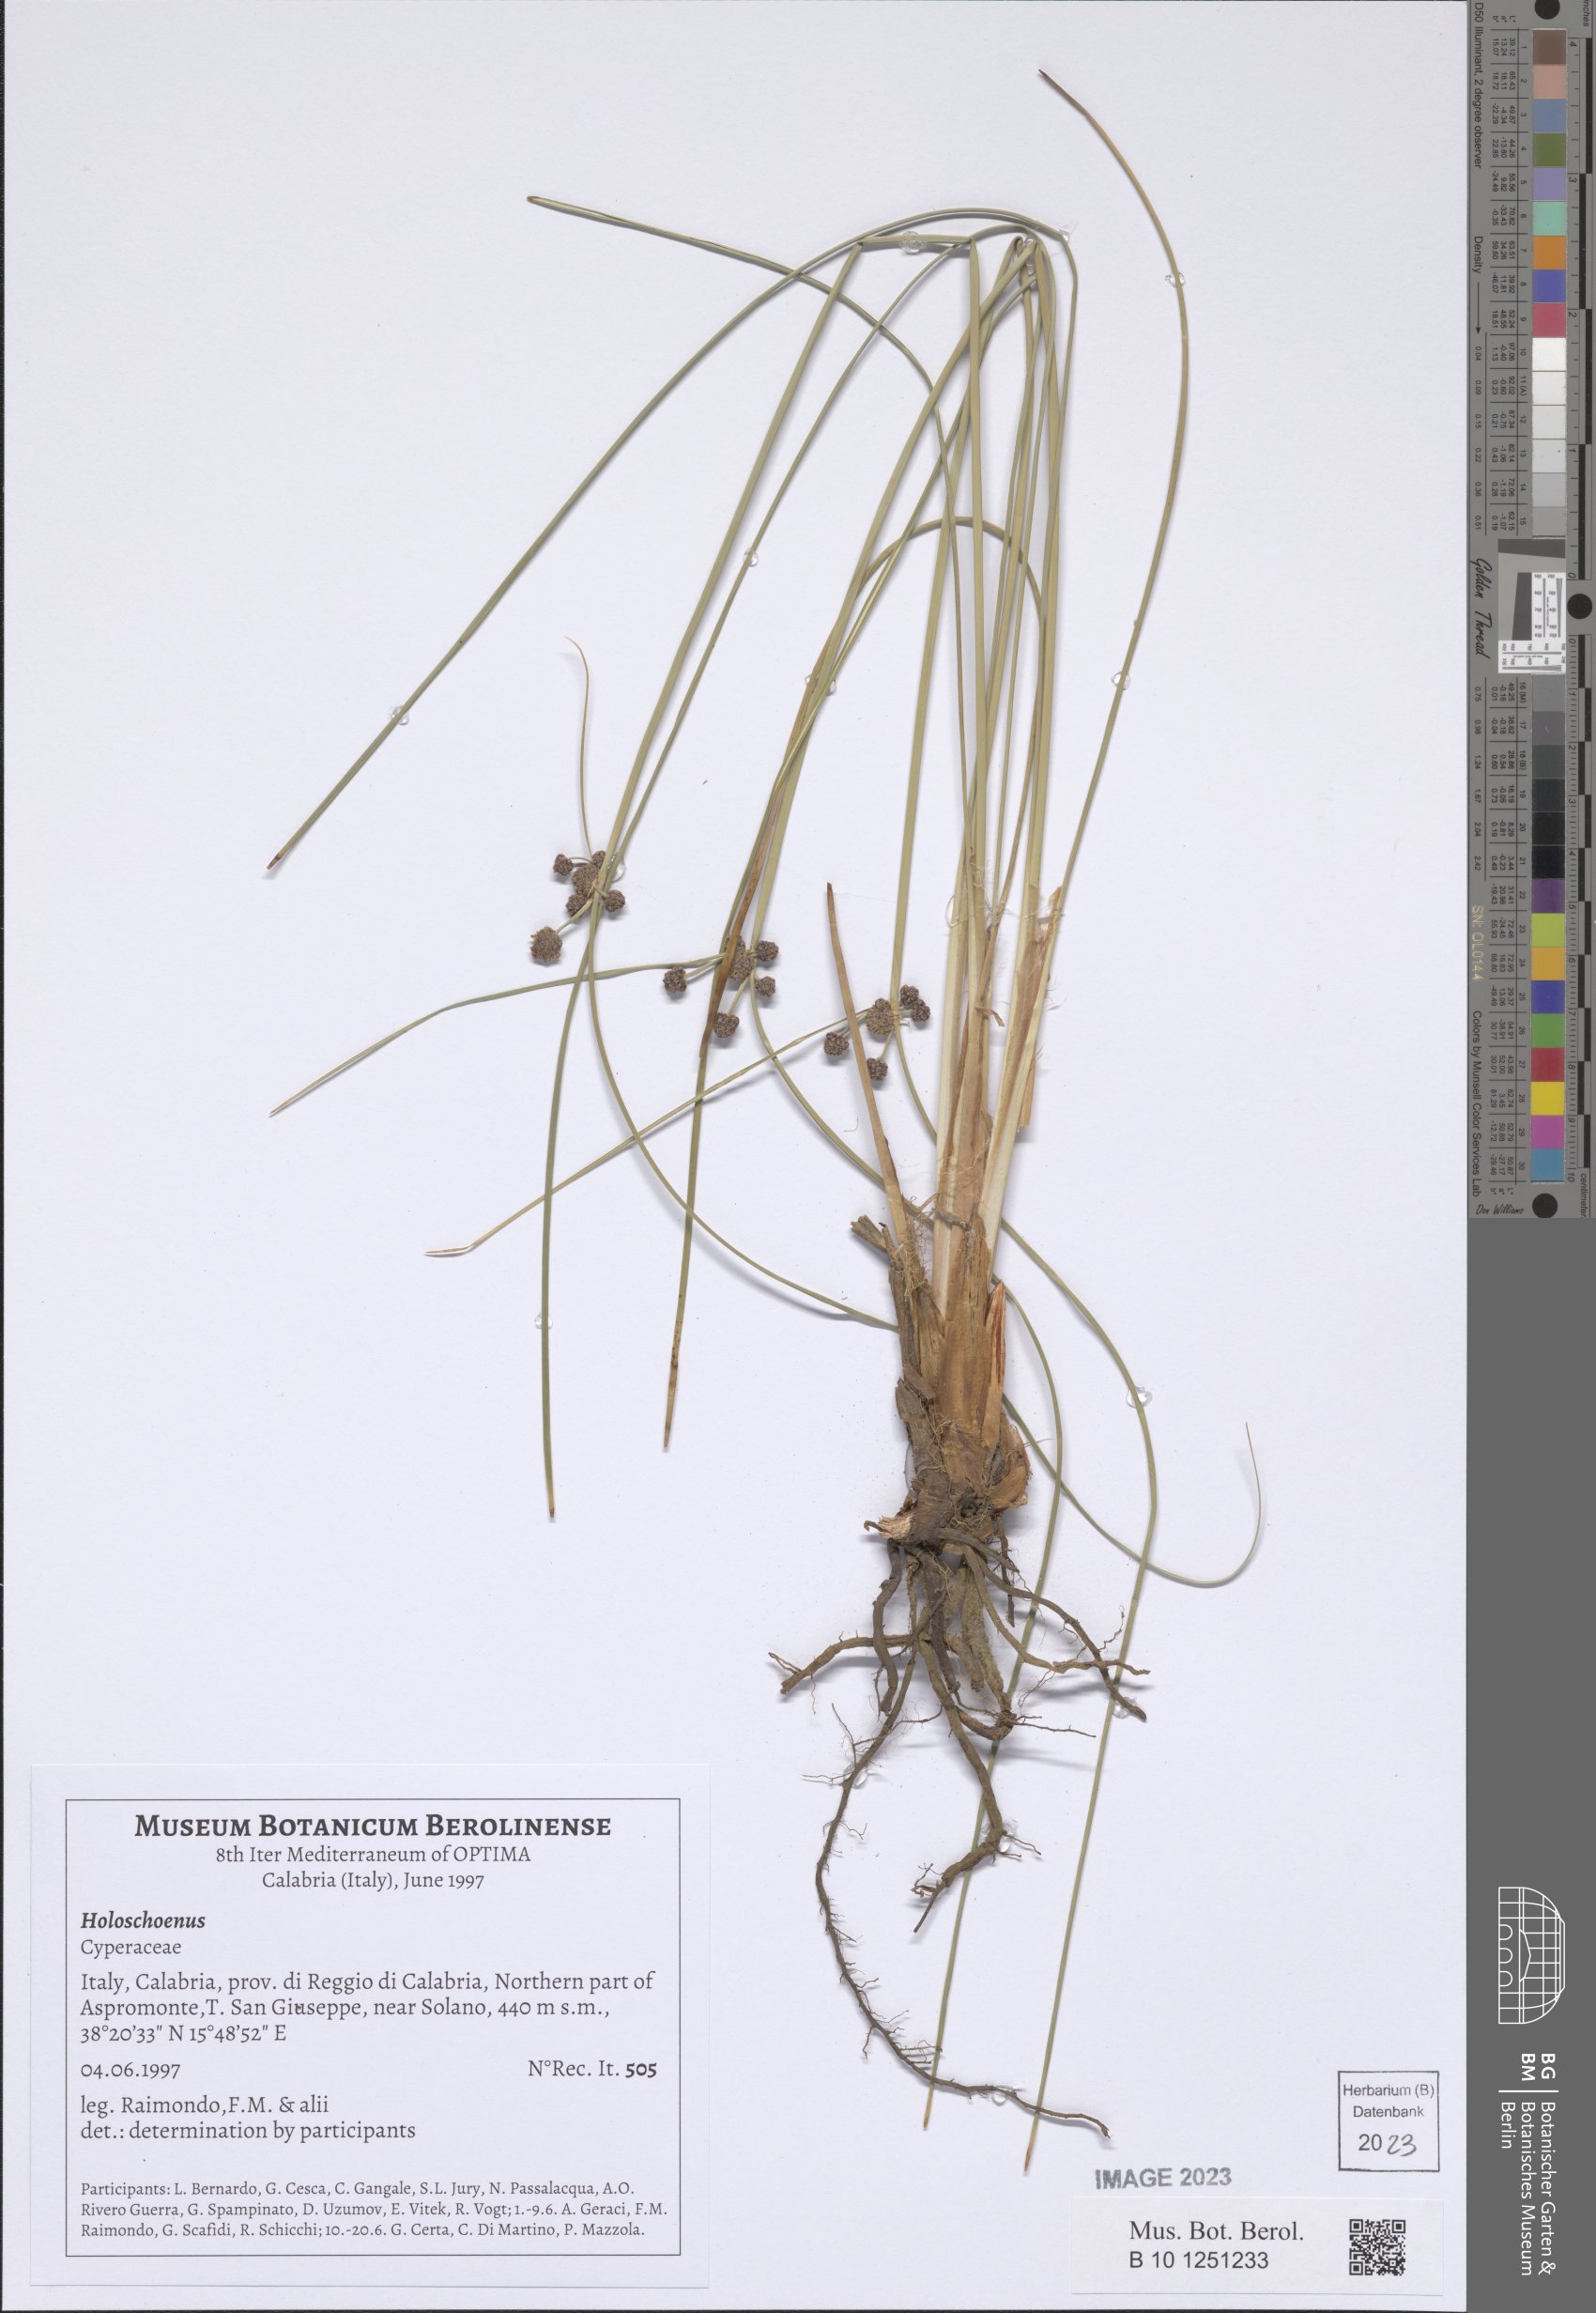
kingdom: Plantae
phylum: Tracheophyta
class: Liliopsida
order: Poales
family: Cyperaceae
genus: Scirpoides
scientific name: Scirpoides
